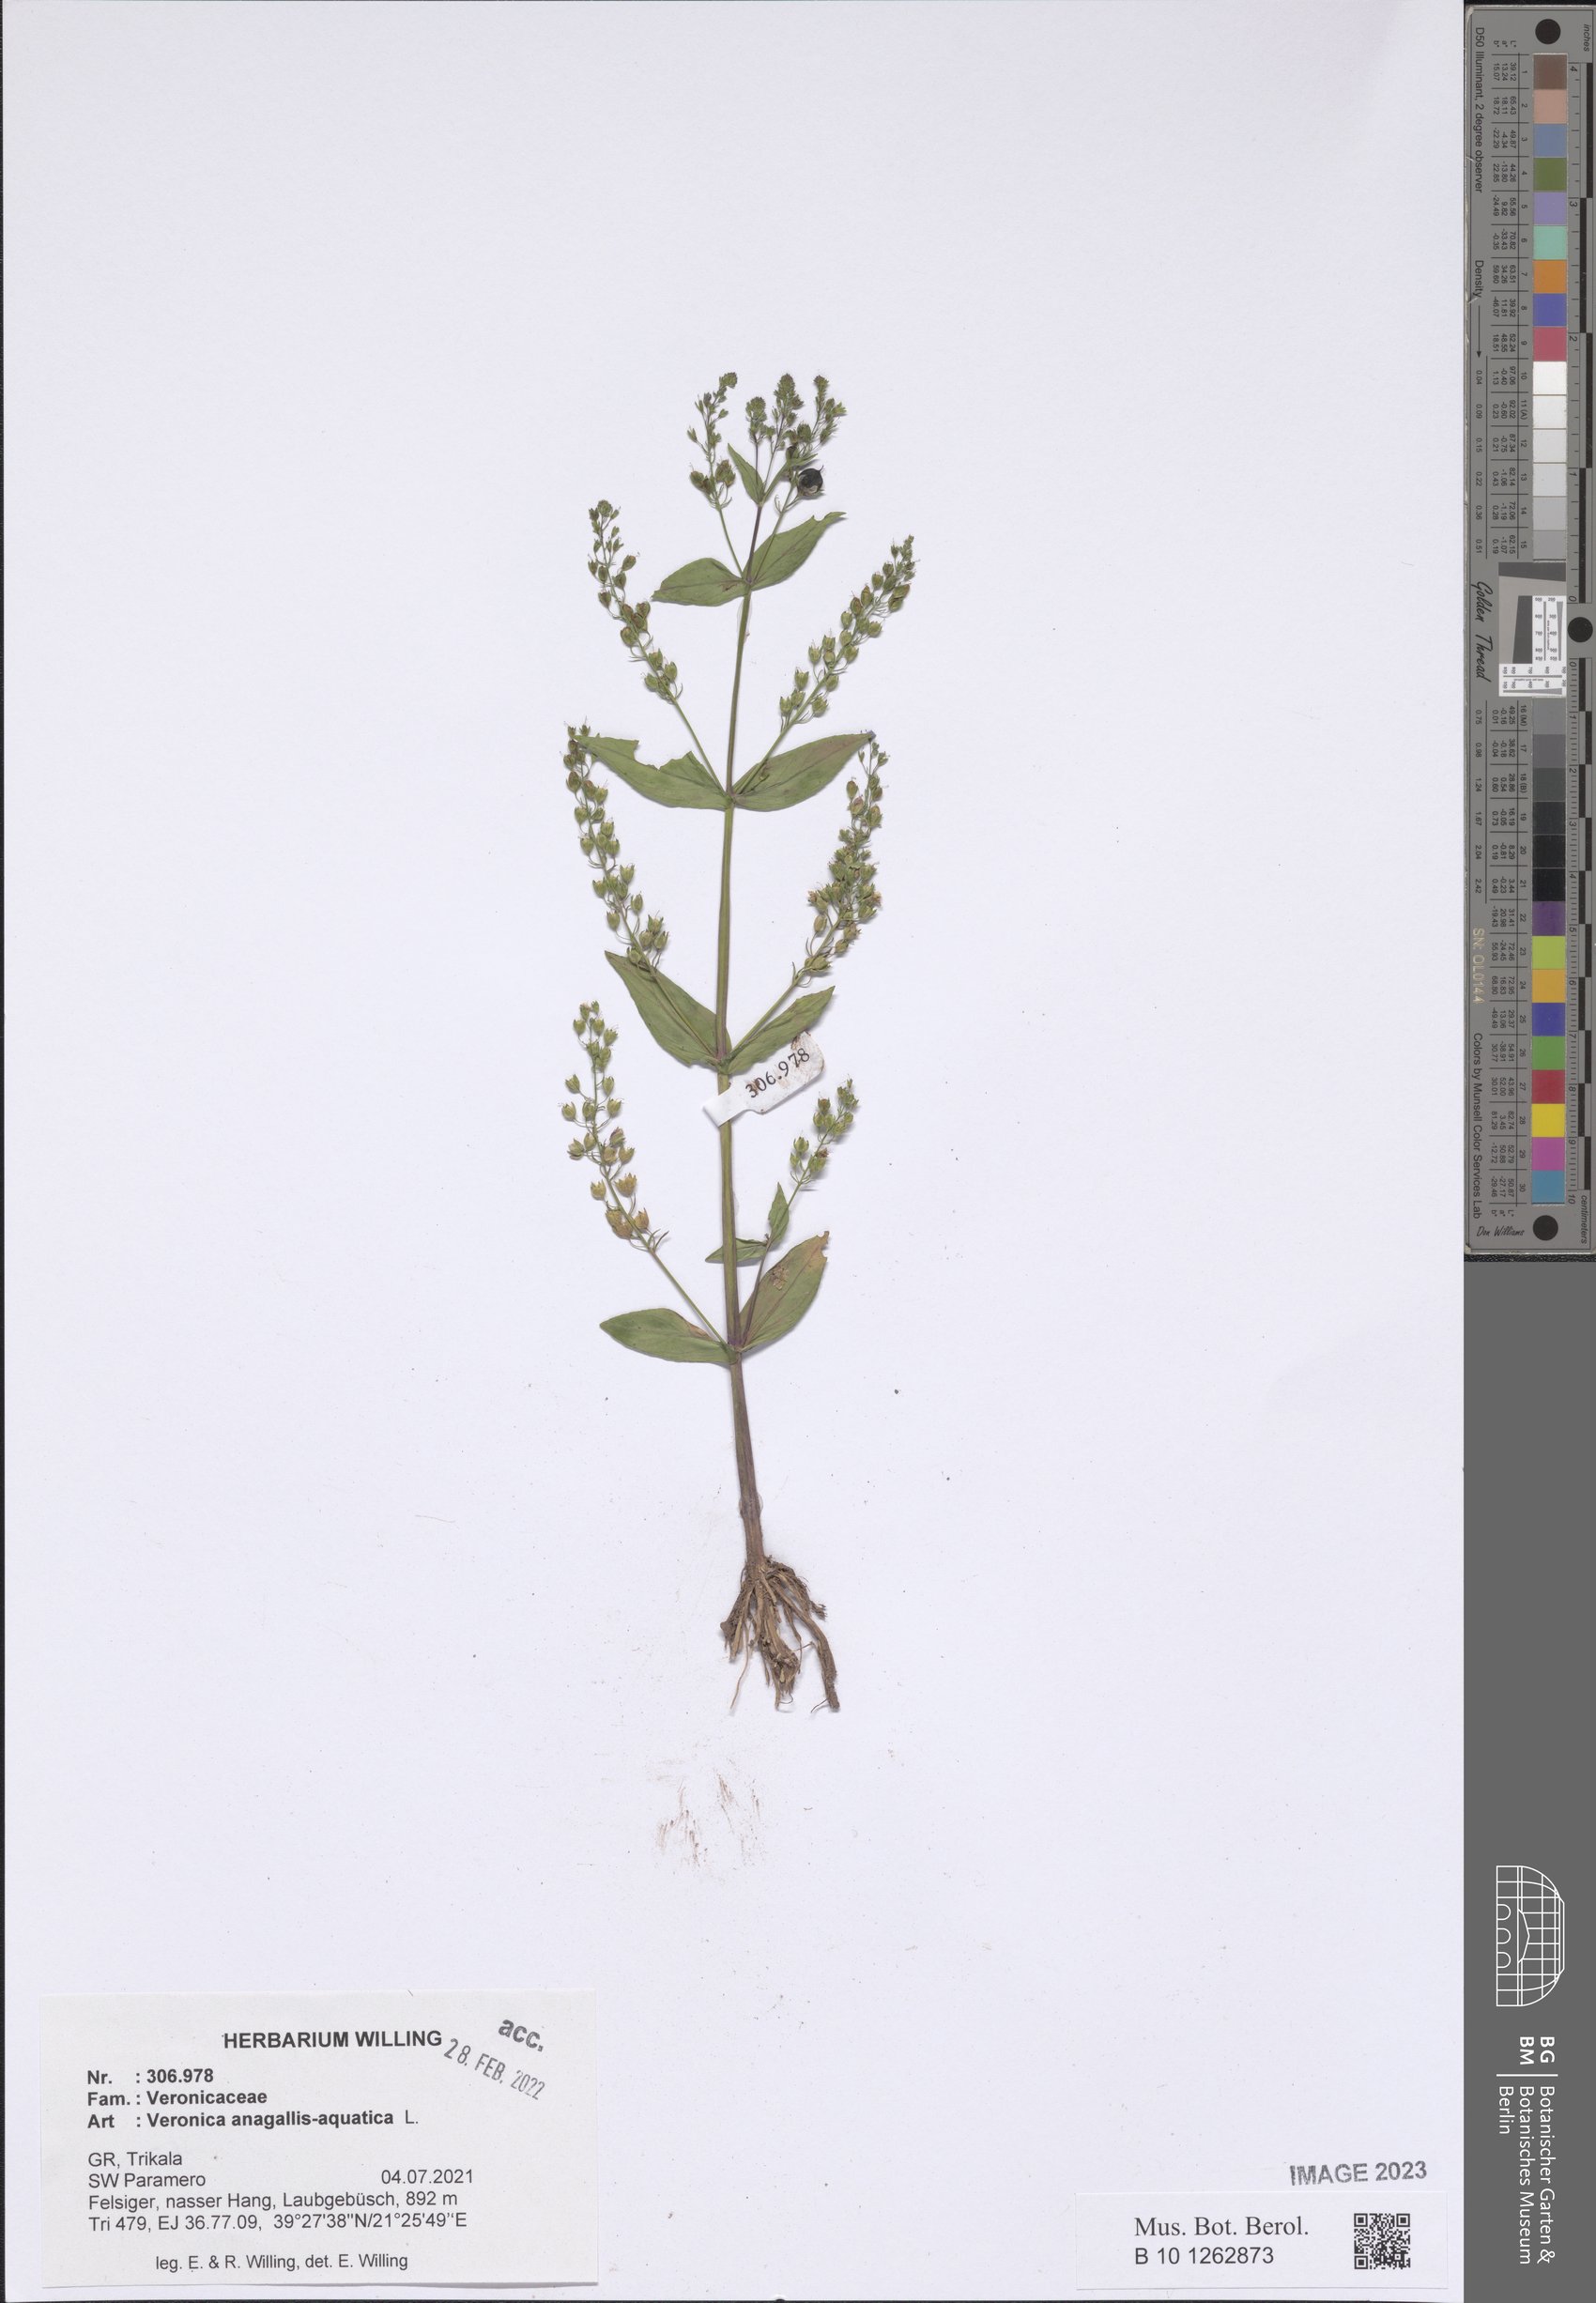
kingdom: Plantae
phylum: Tracheophyta
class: Magnoliopsida
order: Lamiales
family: Plantaginaceae
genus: Veronica
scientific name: Veronica anagallis-aquatica
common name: Water speedwell
